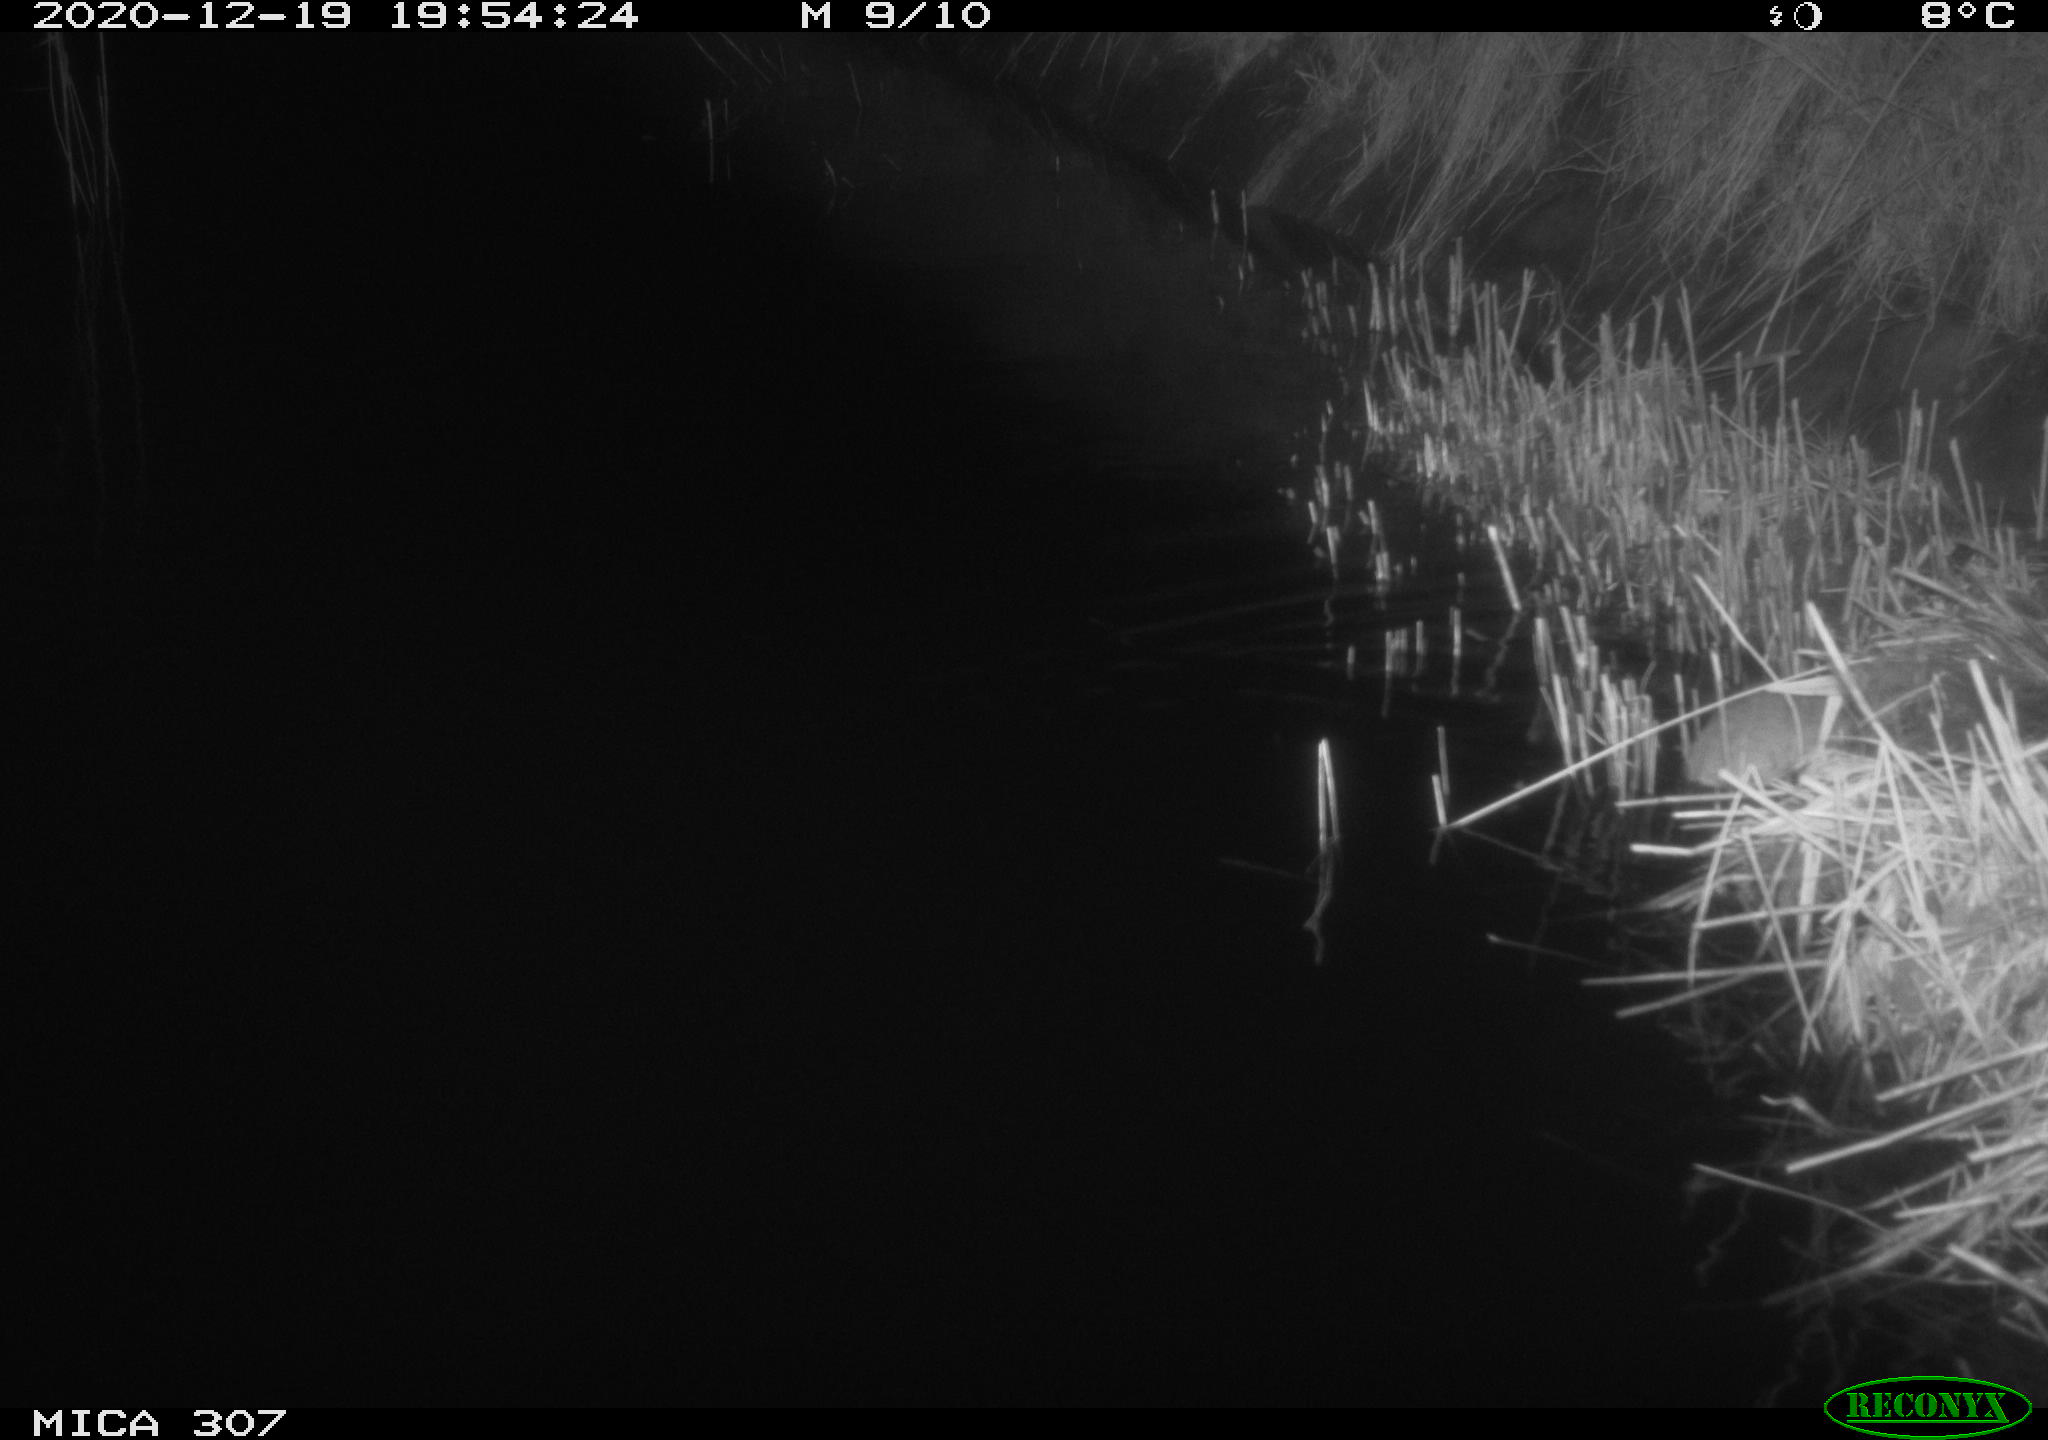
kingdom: Animalia
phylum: Chordata
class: Mammalia
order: Rodentia
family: Muridae
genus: Rattus
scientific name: Rattus norvegicus
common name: Brown rat
